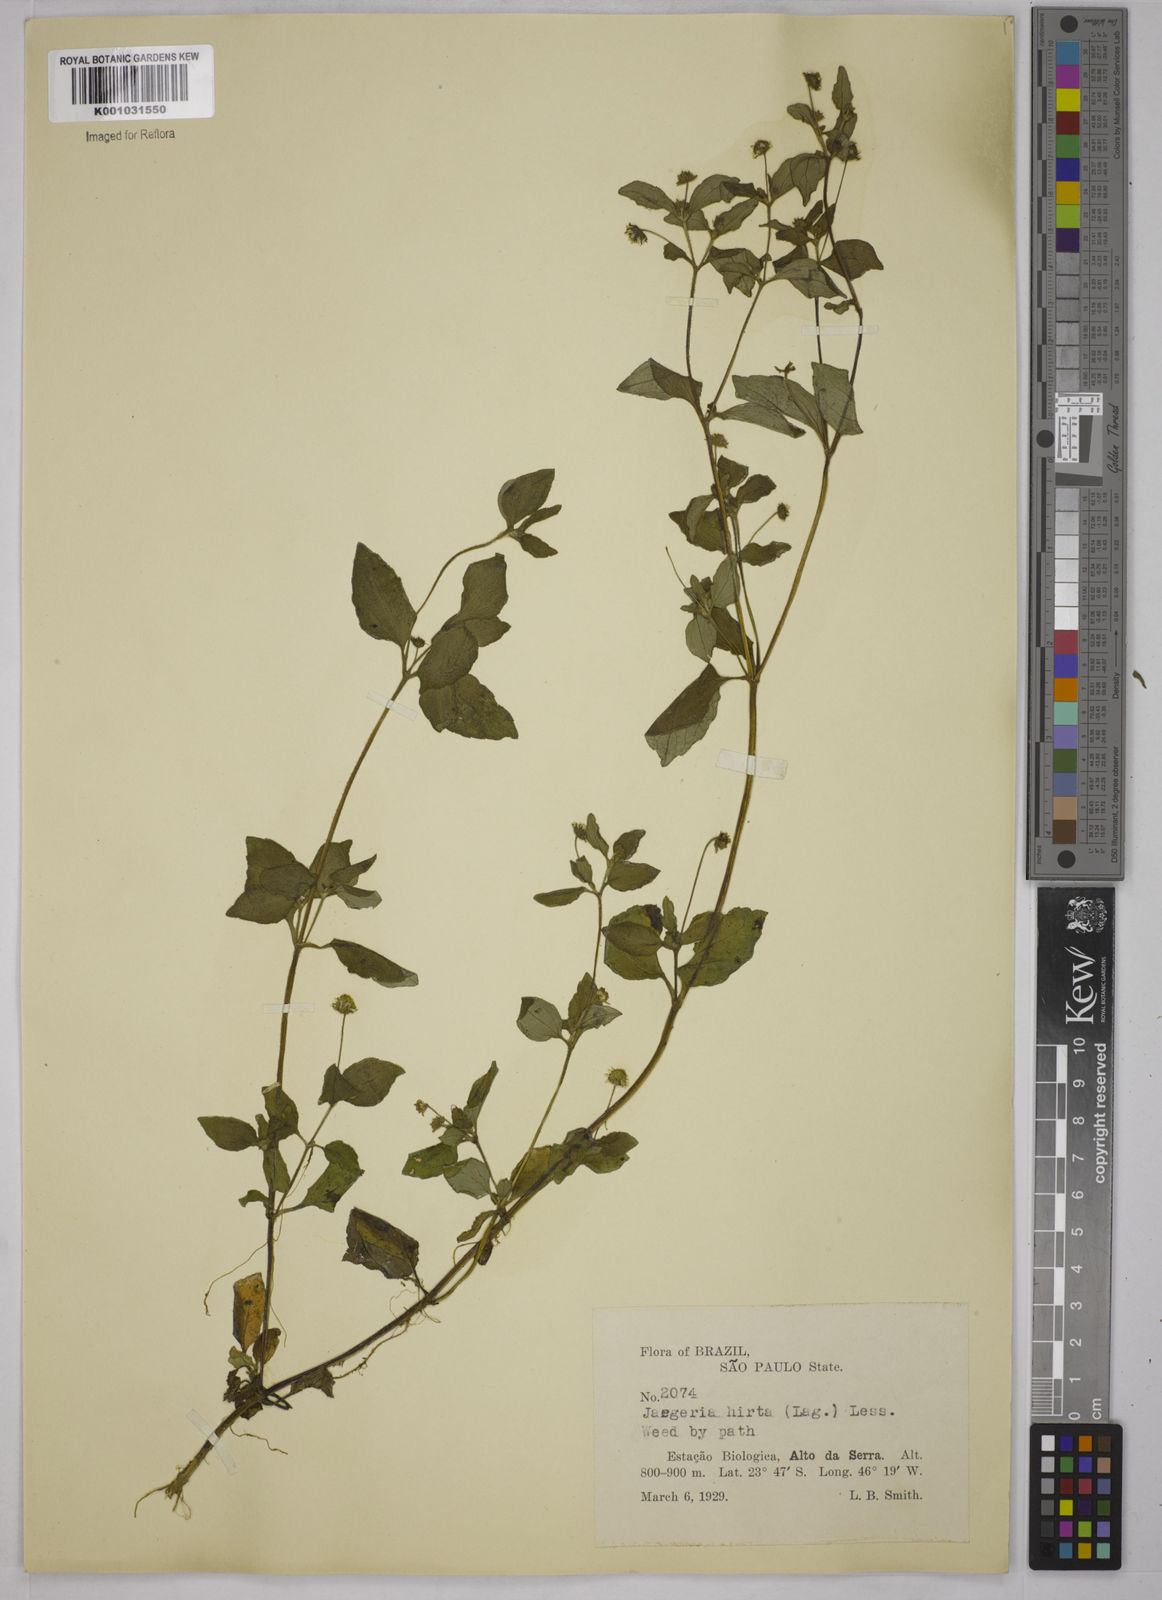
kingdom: Plantae
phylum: Tracheophyta
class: Magnoliopsida
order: Asterales
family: Asteraceae
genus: Jaegeria
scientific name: Jaegeria hirta
